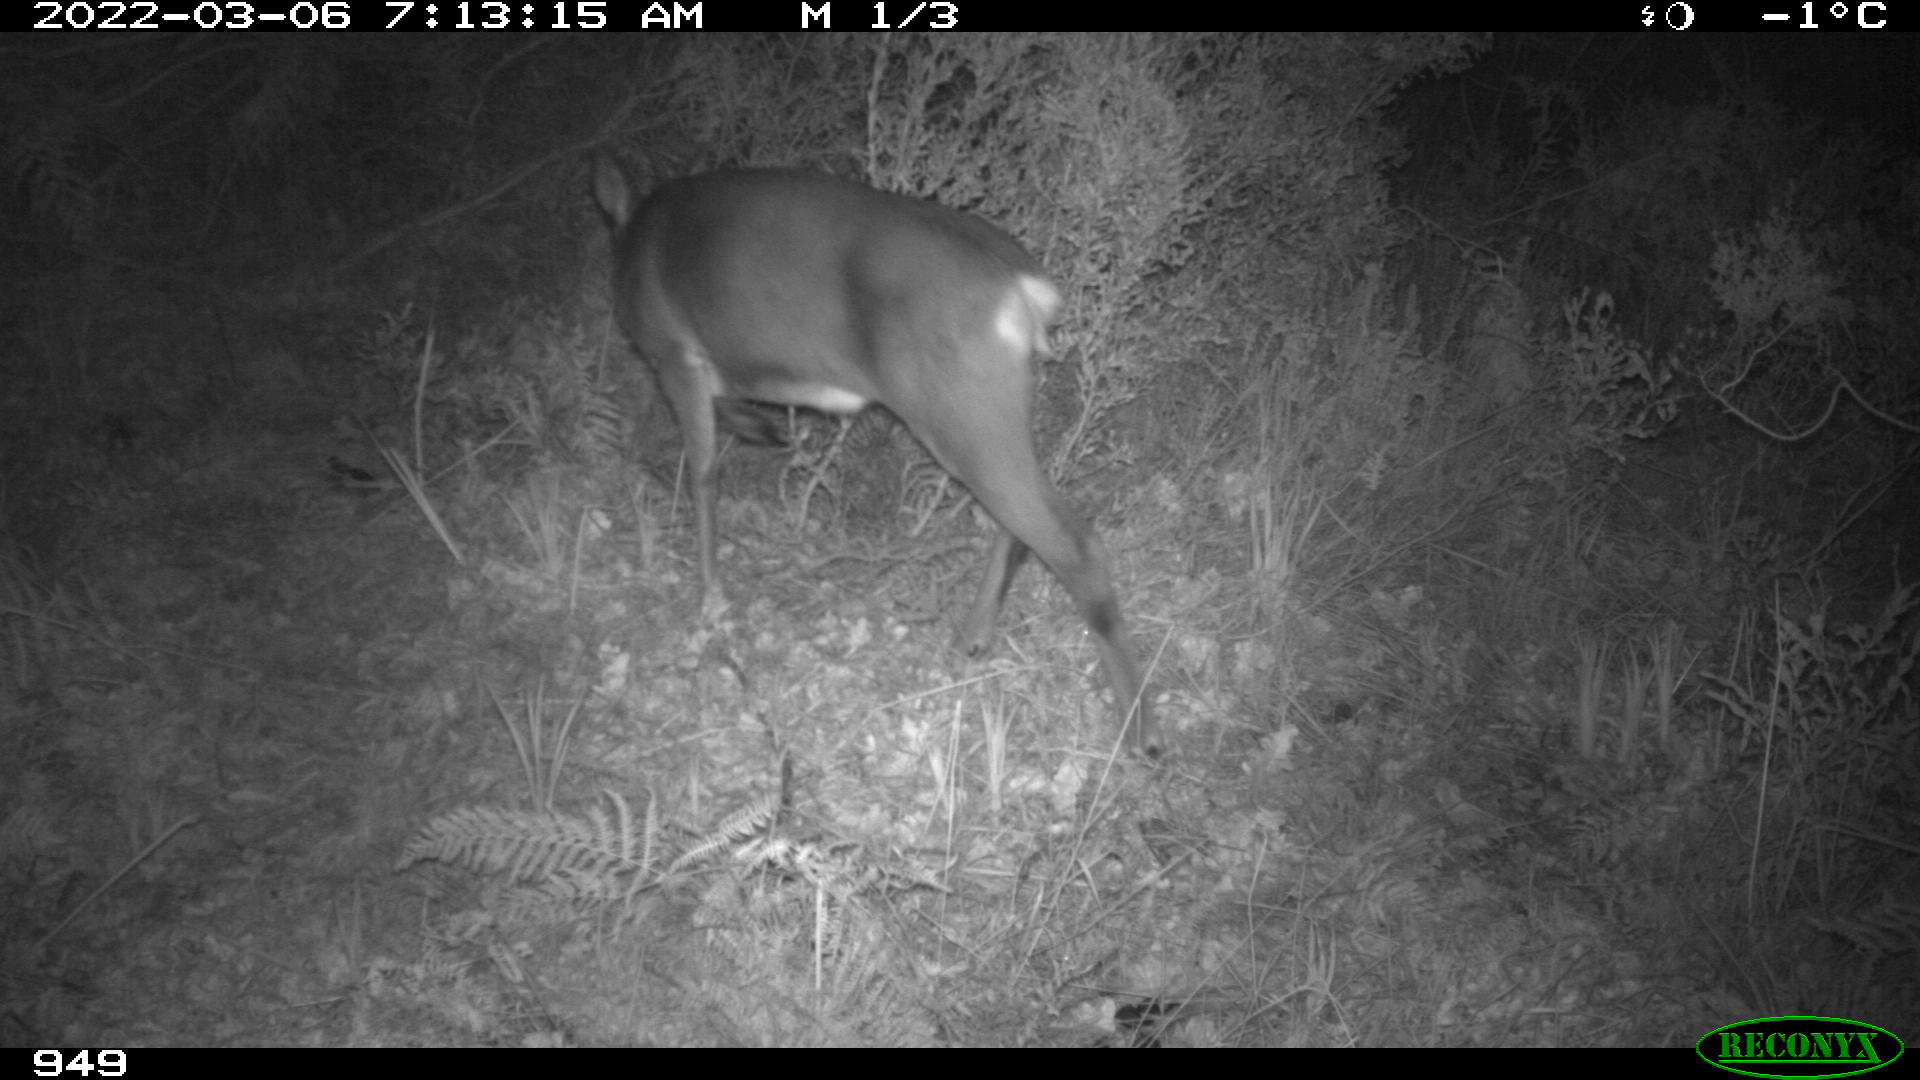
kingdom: Animalia
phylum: Chordata
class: Mammalia
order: Artiodactyla
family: Cervidae
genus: Capreolus
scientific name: Capreolus capreolus
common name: Western roe deer
